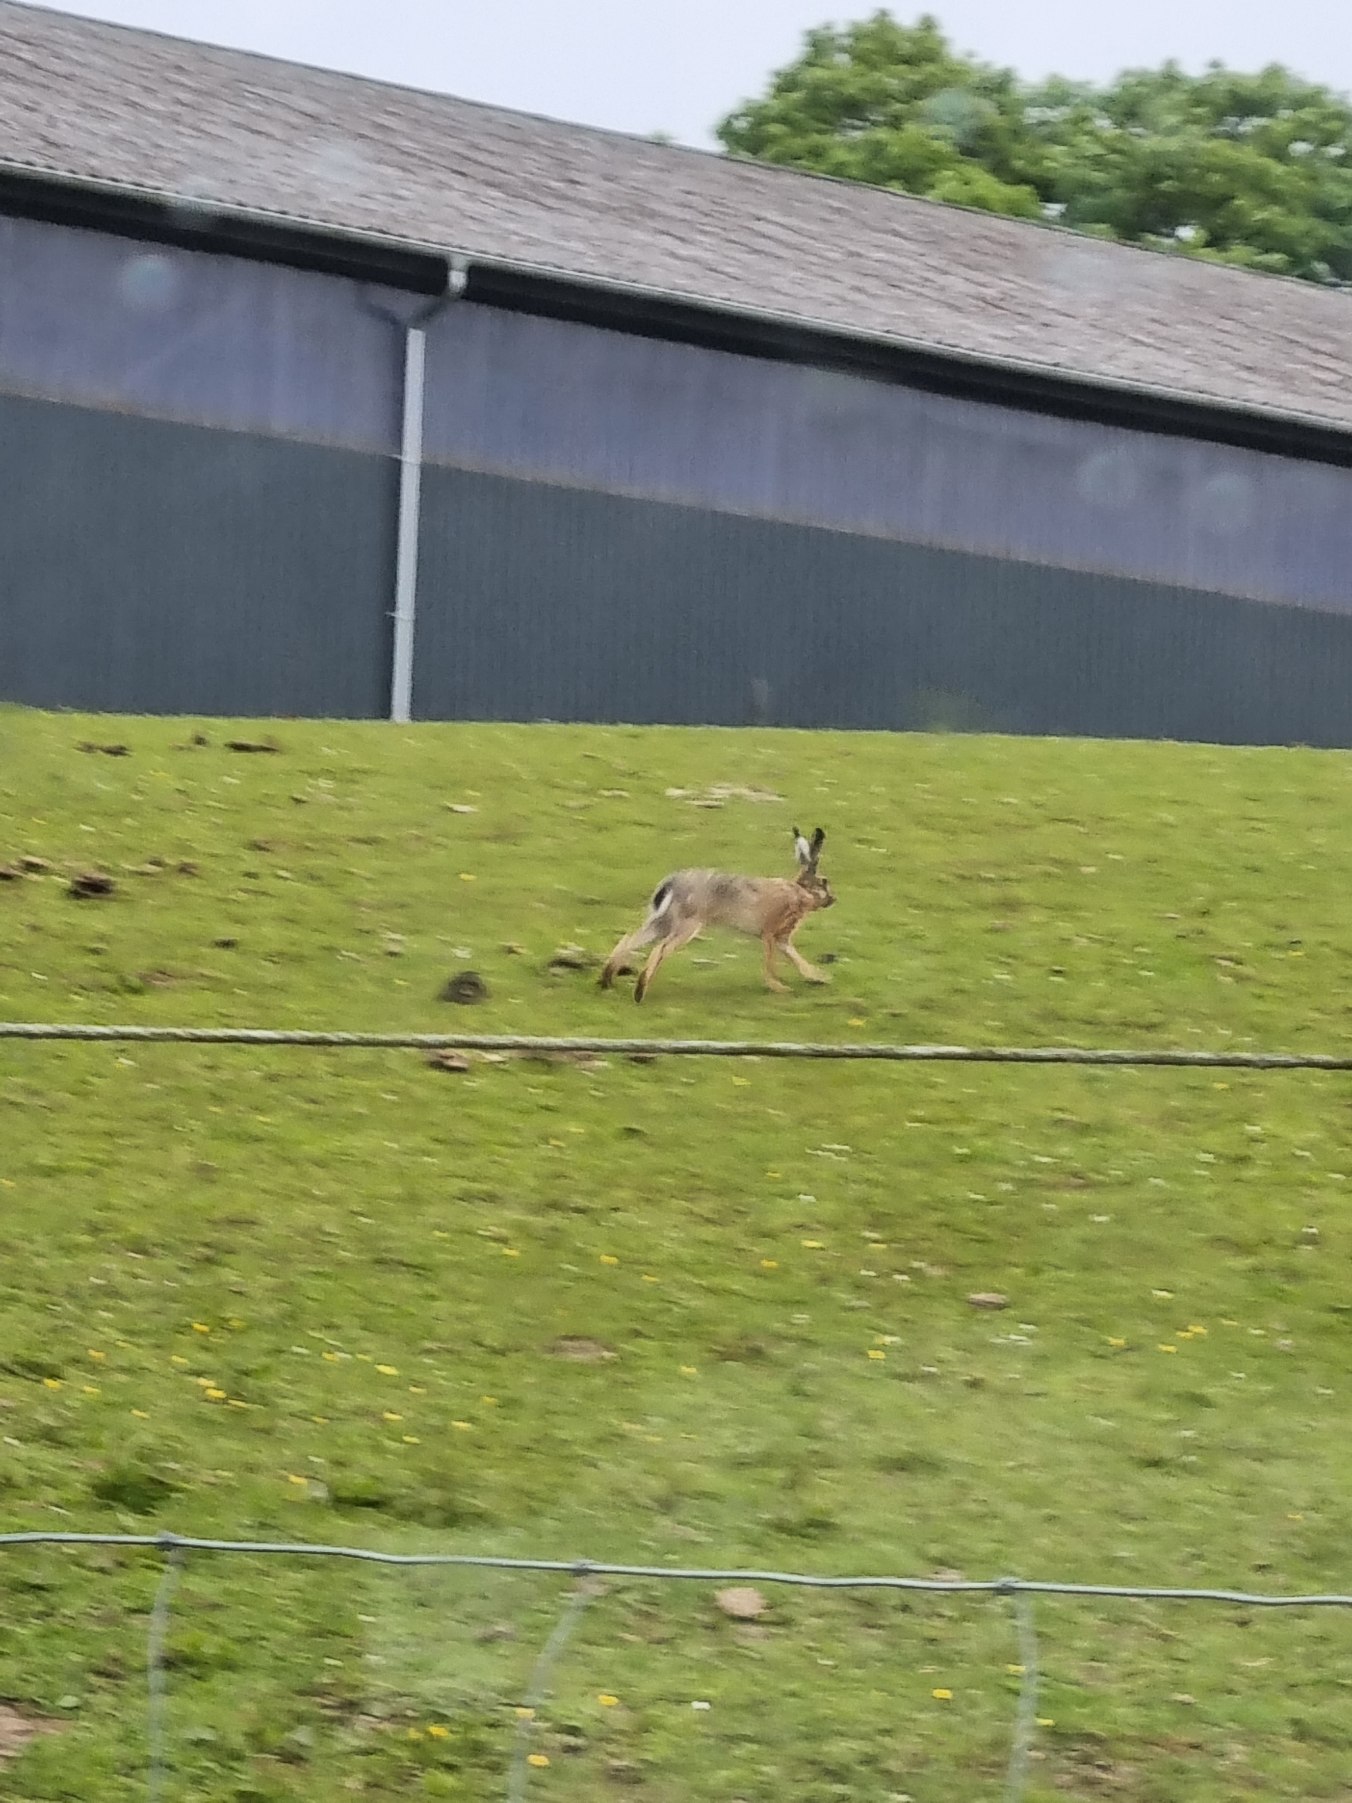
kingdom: Animalia
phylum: Chordata
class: Mammalia
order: Lagomorpha
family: Leporidae
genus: Lepus
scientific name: Lepus europaeus
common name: Hare
